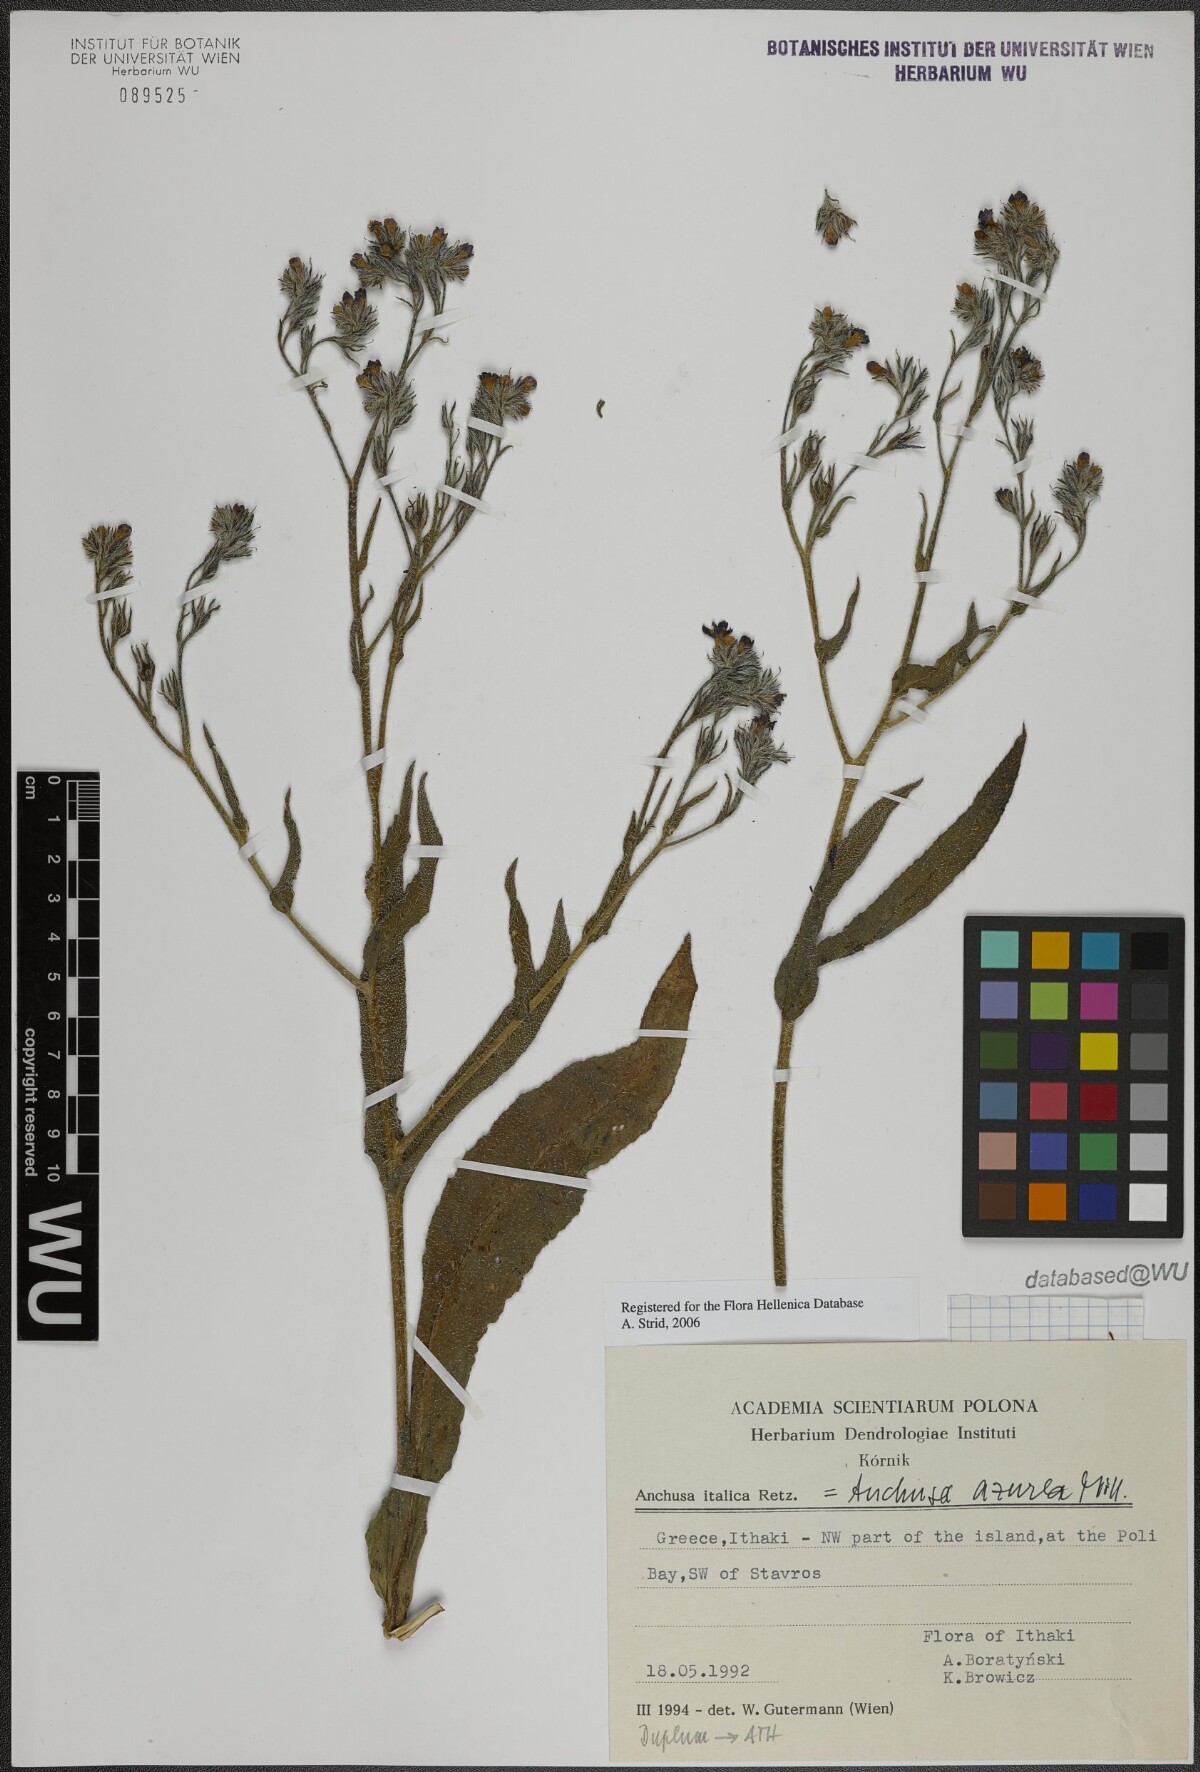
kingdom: Plantae
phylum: Tracheophyta
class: Magnoliopsida
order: Boraginales
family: Boraginaceae
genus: Anchusa
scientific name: Anchusa azurea
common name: Garden anchusa
